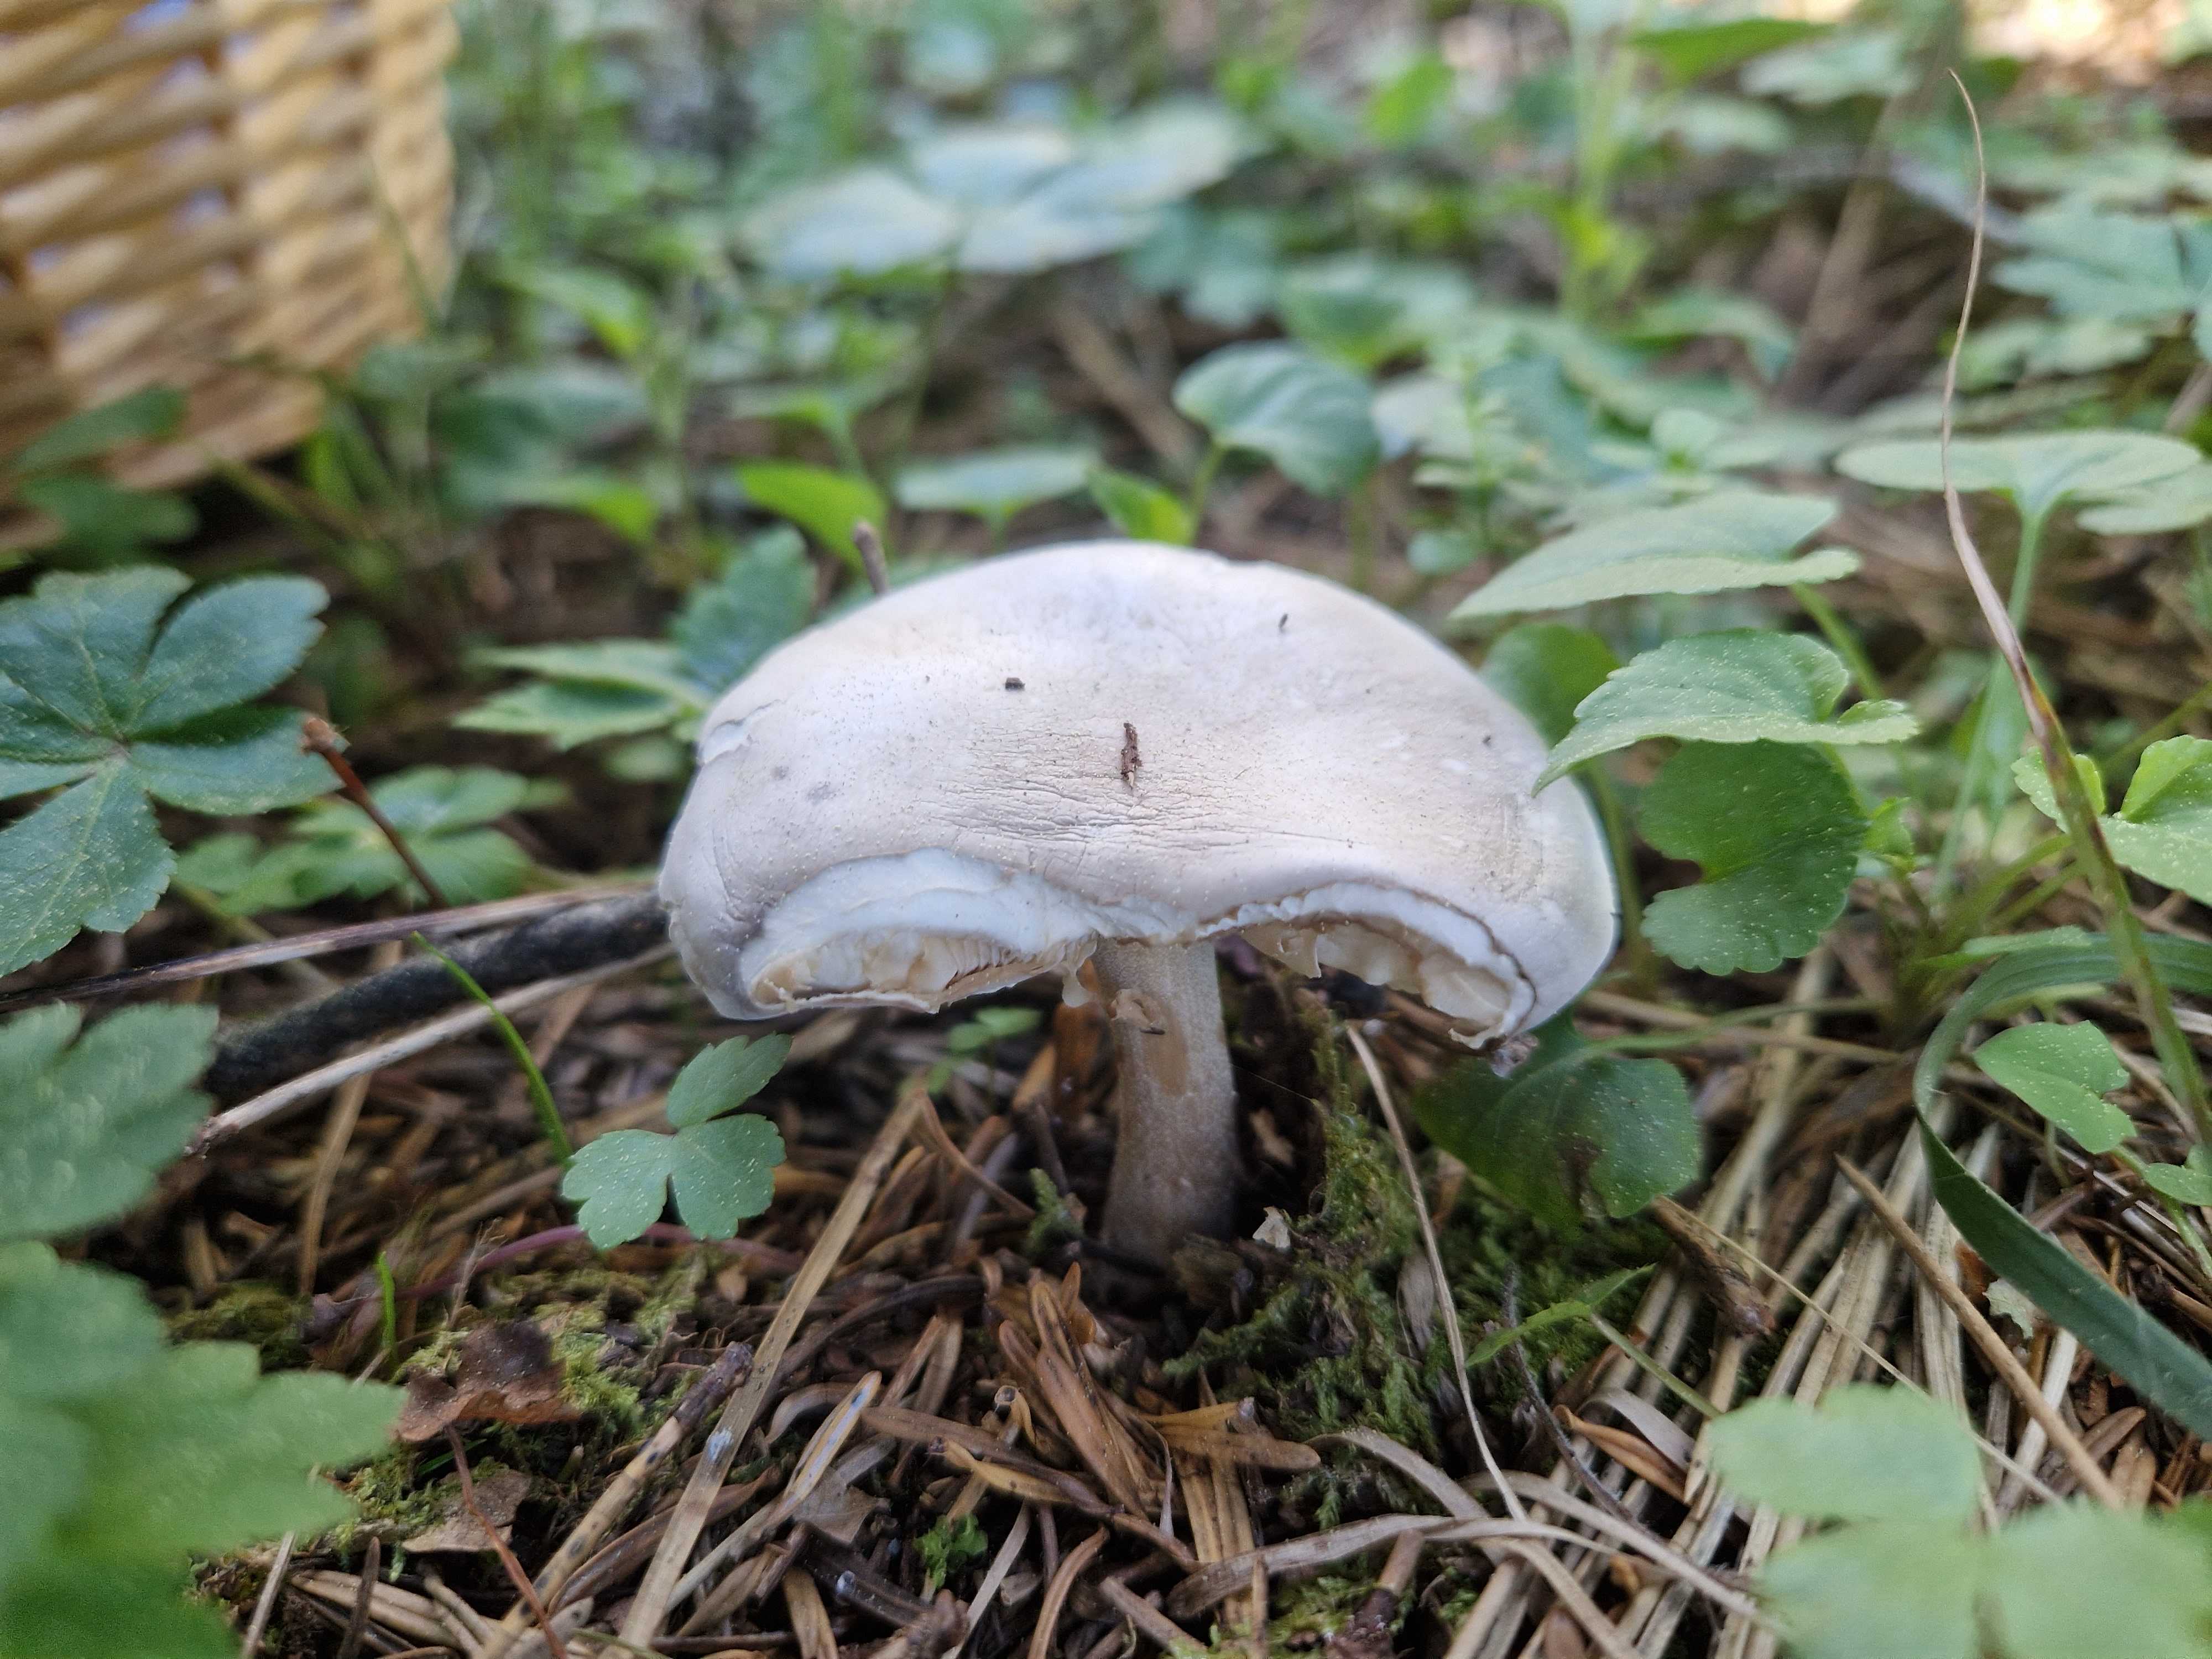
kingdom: Fungi
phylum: Basidiomycota
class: Agaricomycetes
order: Agaricales
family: Tricholomataceae
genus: Melanoleuca
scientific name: Melanoleuca
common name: munkehat
